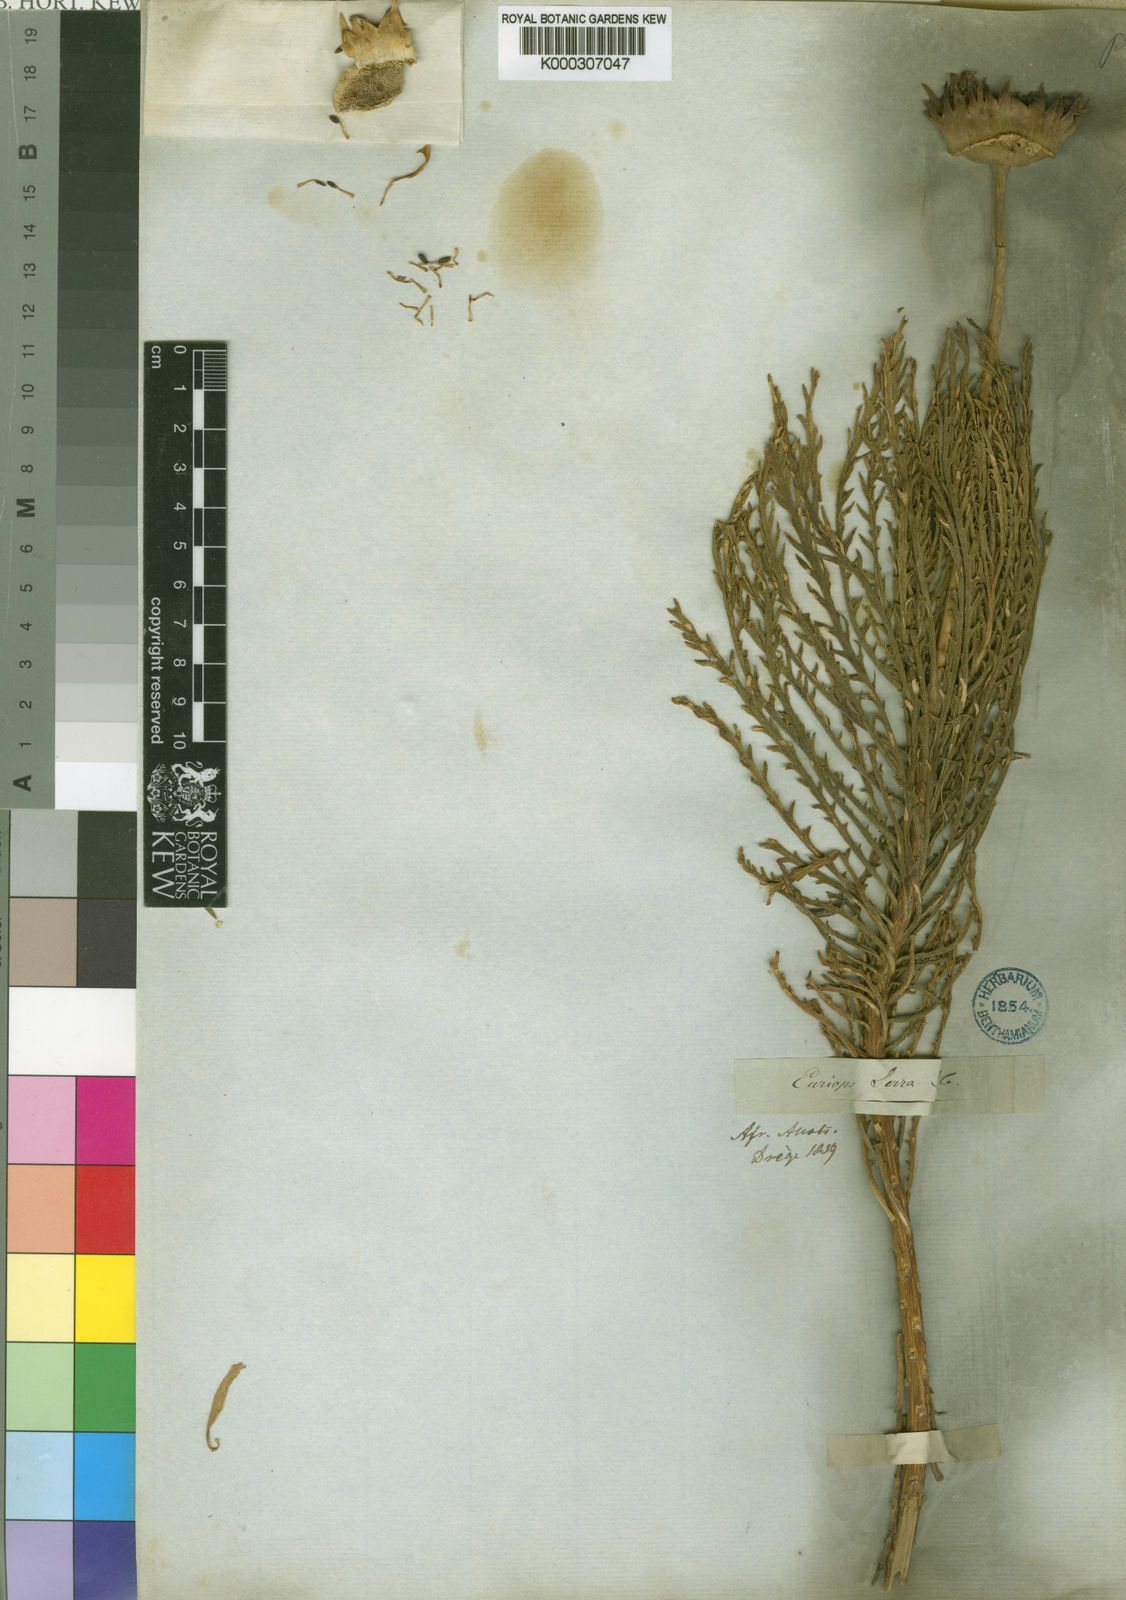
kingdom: Plantae
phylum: Tracheophyta
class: Magnoliopsida
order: Asterales
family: Asteraceae
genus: Euryops
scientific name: Euryops serra
